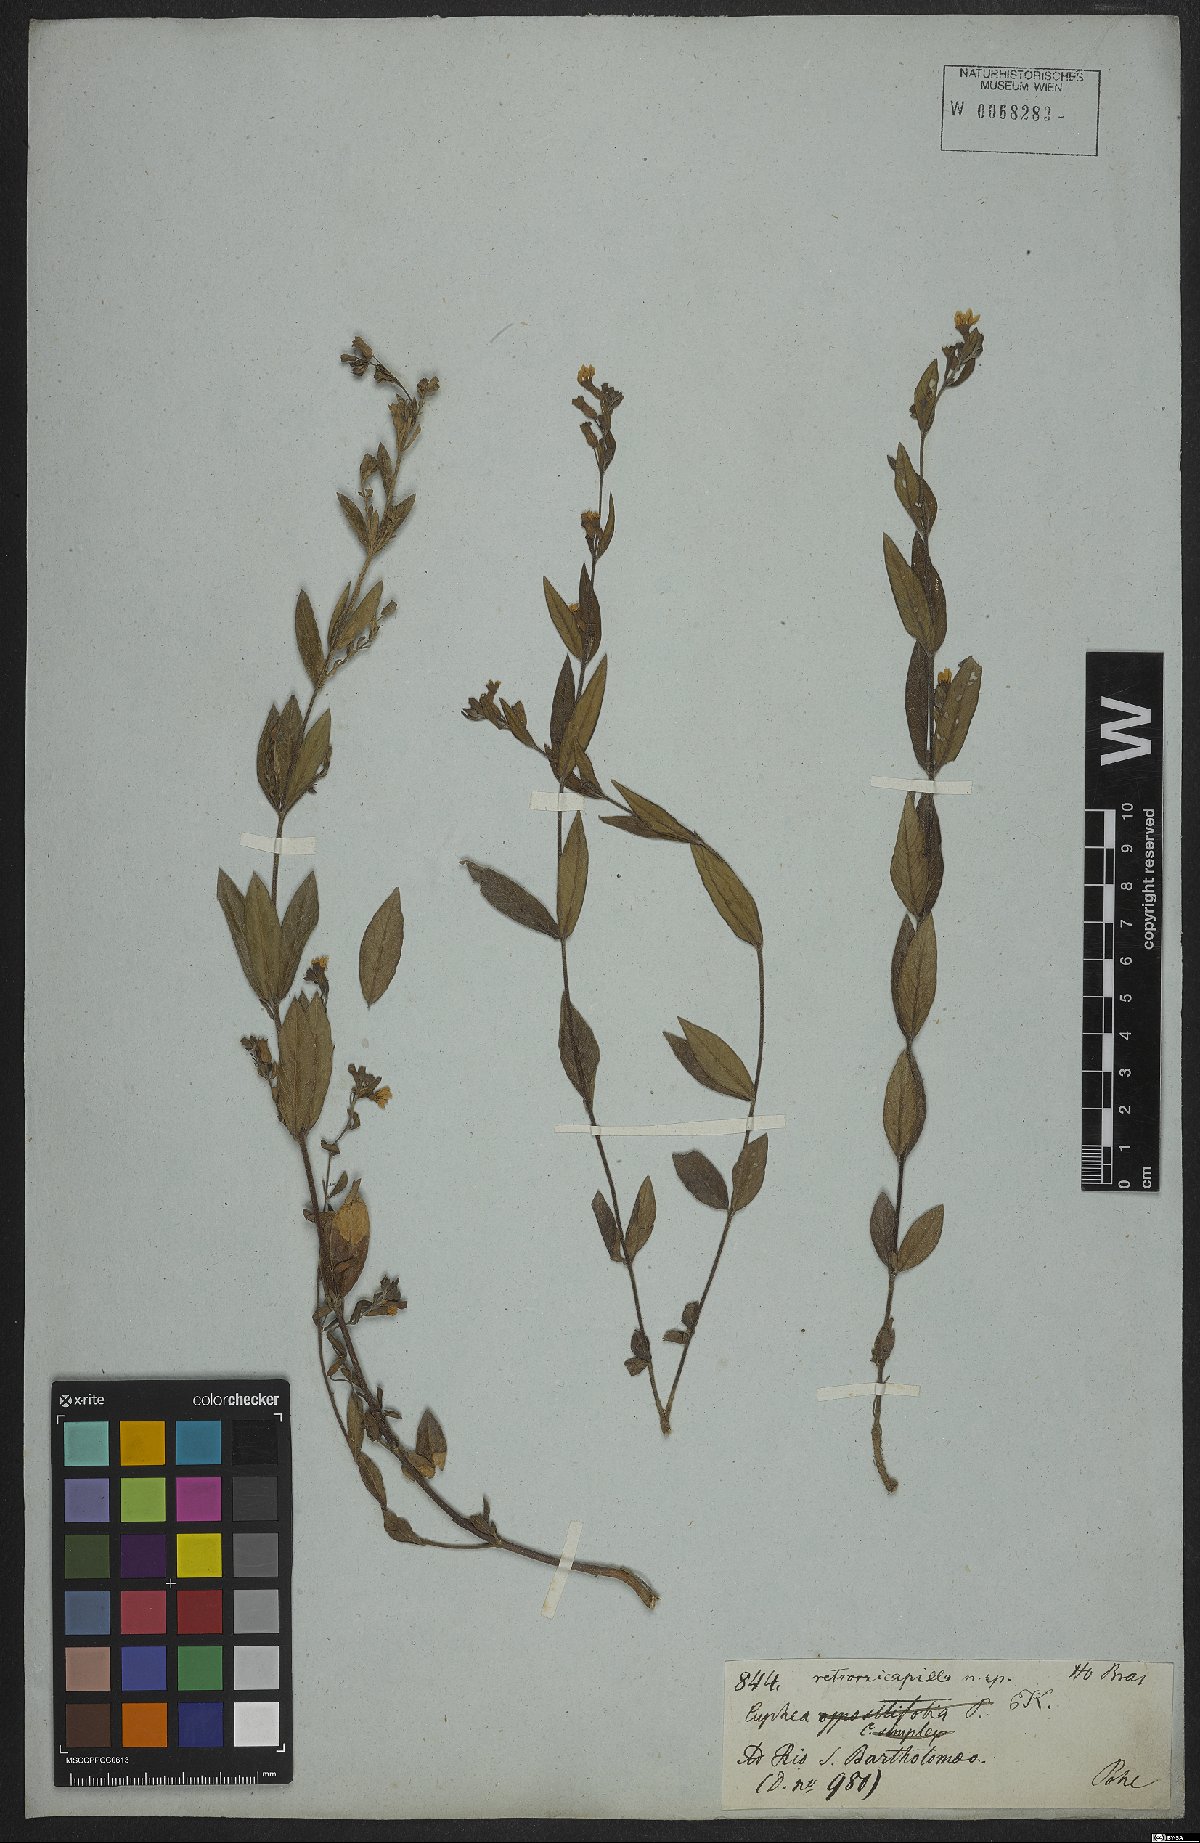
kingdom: Plantae
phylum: Tracheophyta
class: Magnoliopsida
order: Myrtales
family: Lythraceae
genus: Cuphea
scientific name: Cuphea retrorsicapilla
